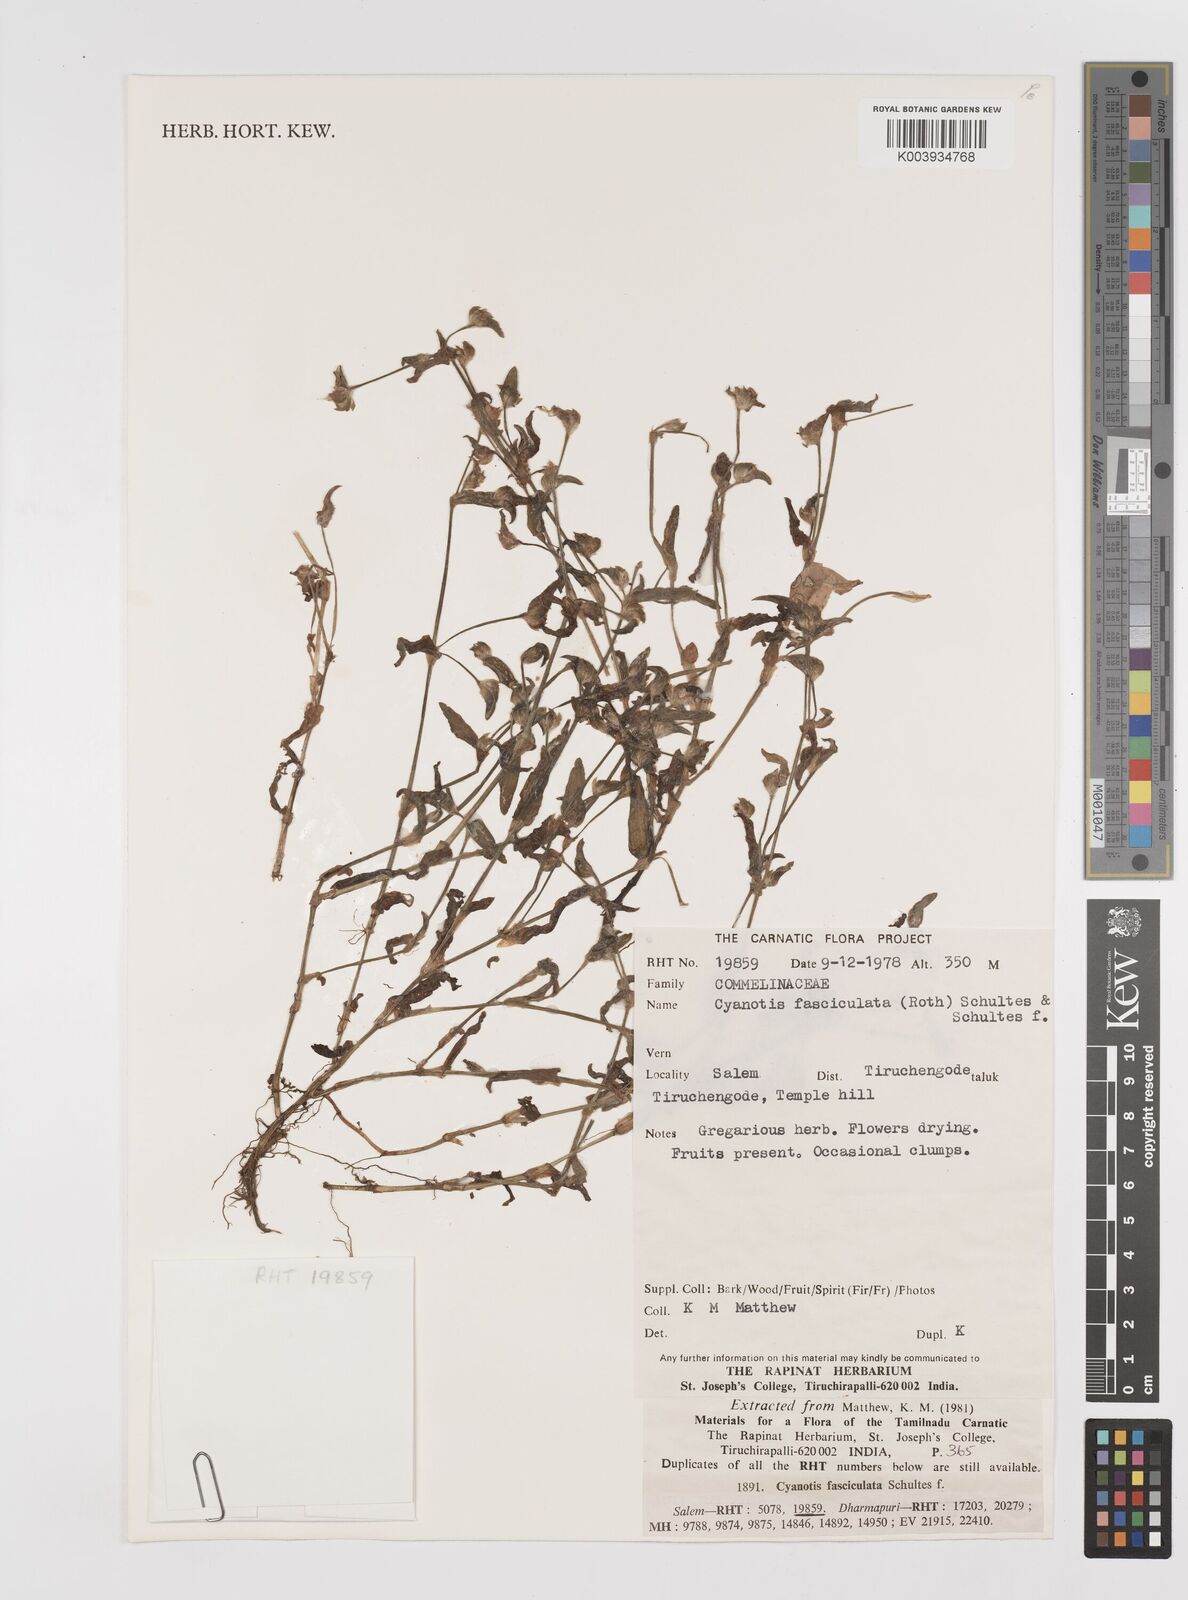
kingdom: Plantae
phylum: Tracheophyta
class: Liliopsida
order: Commelinales
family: Commelinaceae
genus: Cyanotis
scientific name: Cyanotis fasciculata
